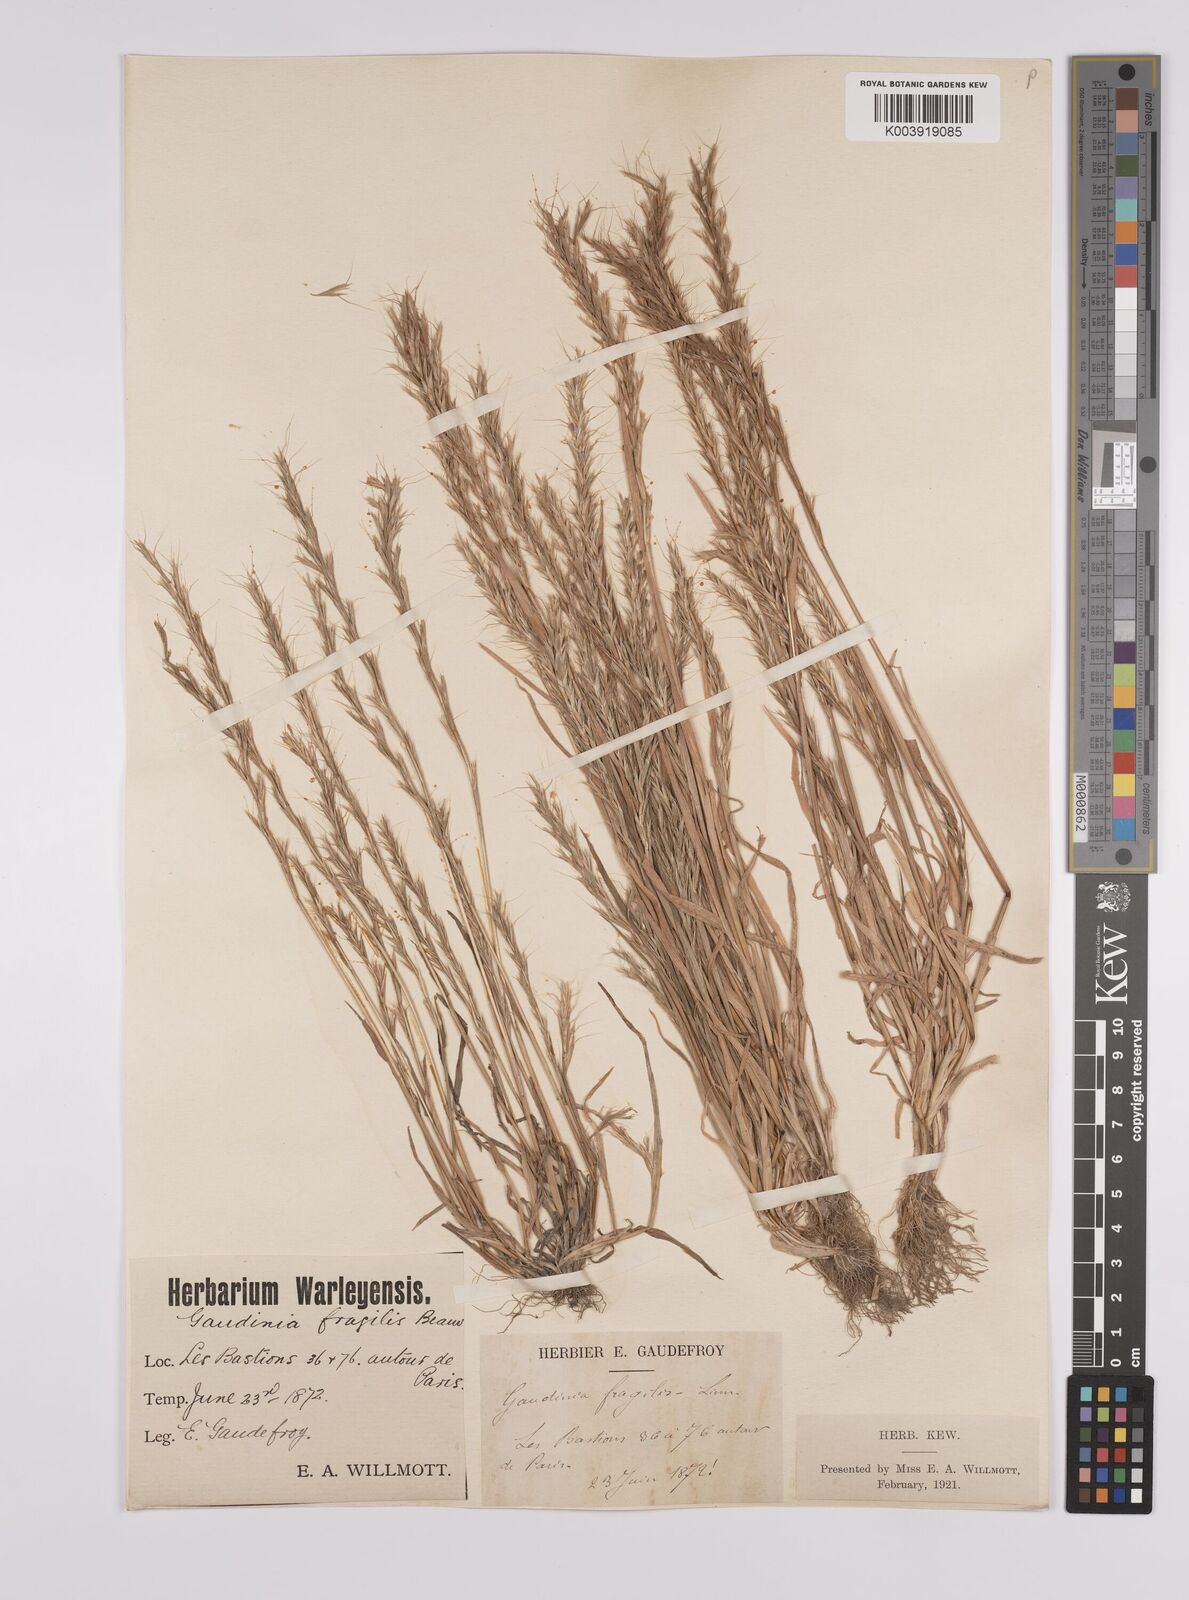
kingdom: Plantae
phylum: Tracheophyta
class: Liliopsida
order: Poales
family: Poaceae
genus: Gaudinia
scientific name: Gaudinia fragilis
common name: French oat-grass
